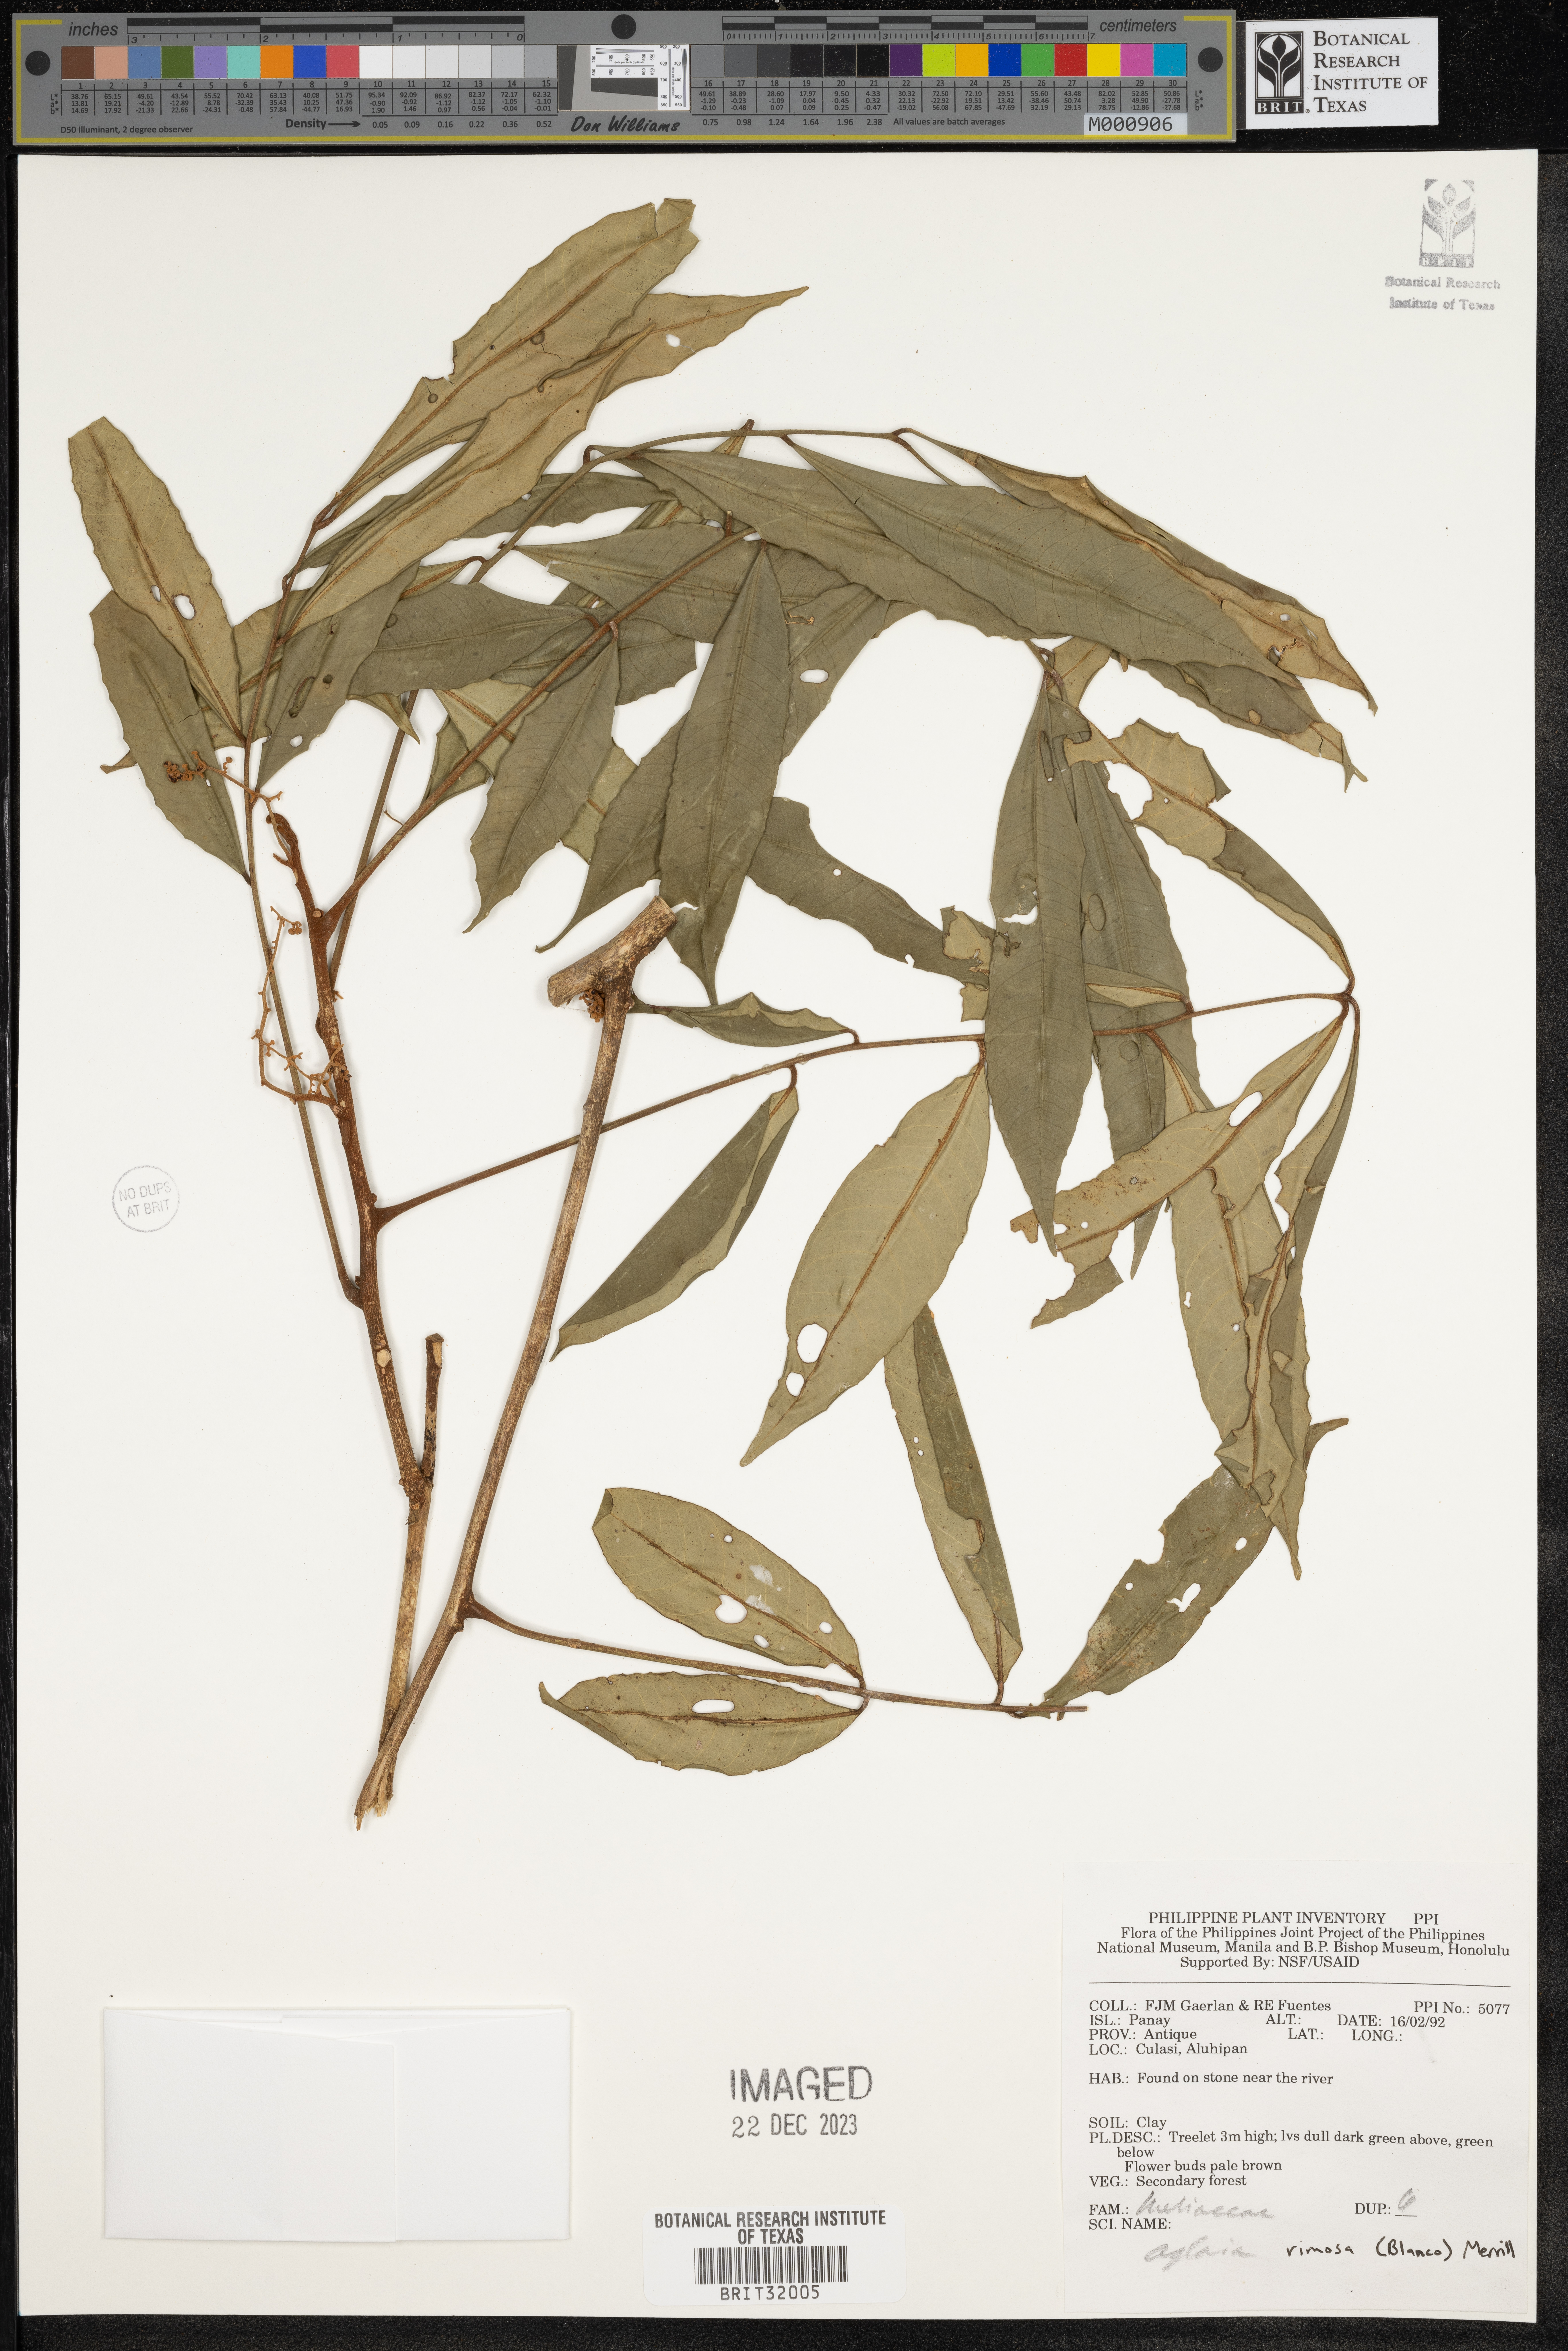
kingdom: Plantae
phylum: Tracheophyta
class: Magnoliopsida
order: Sapindales
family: Meliaceae
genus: Aglaia
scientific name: Aglaia
